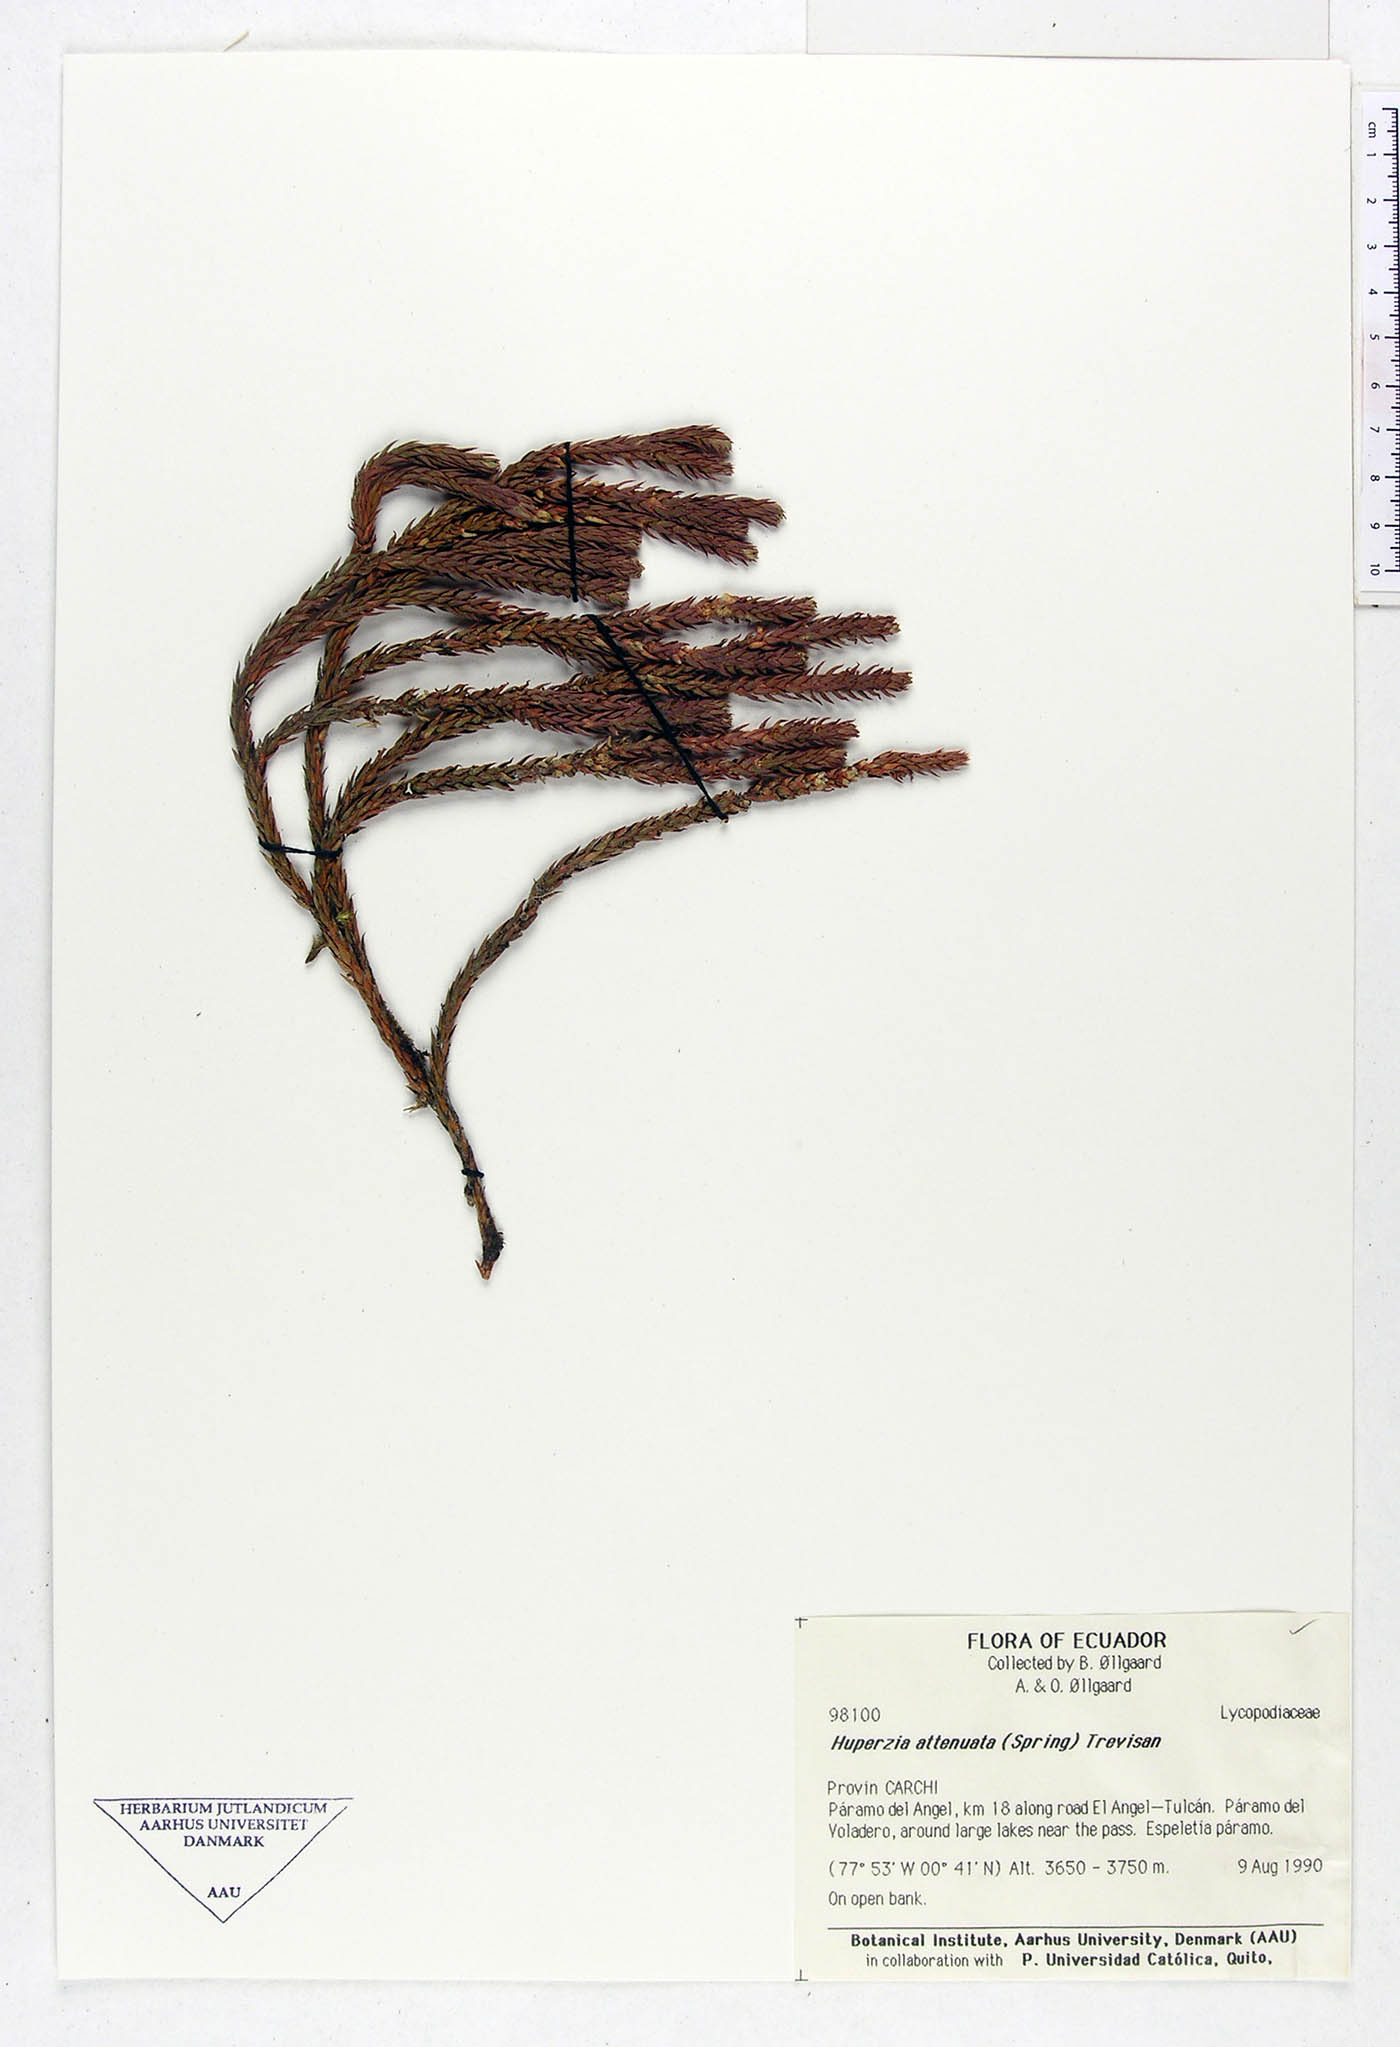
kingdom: Plantae
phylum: Tracheophyta
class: Lycopodiopsida
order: Lycopodiales
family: Lycopodiaceae
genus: Phlegmariurus
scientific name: Phlegmariurus attenuatus
